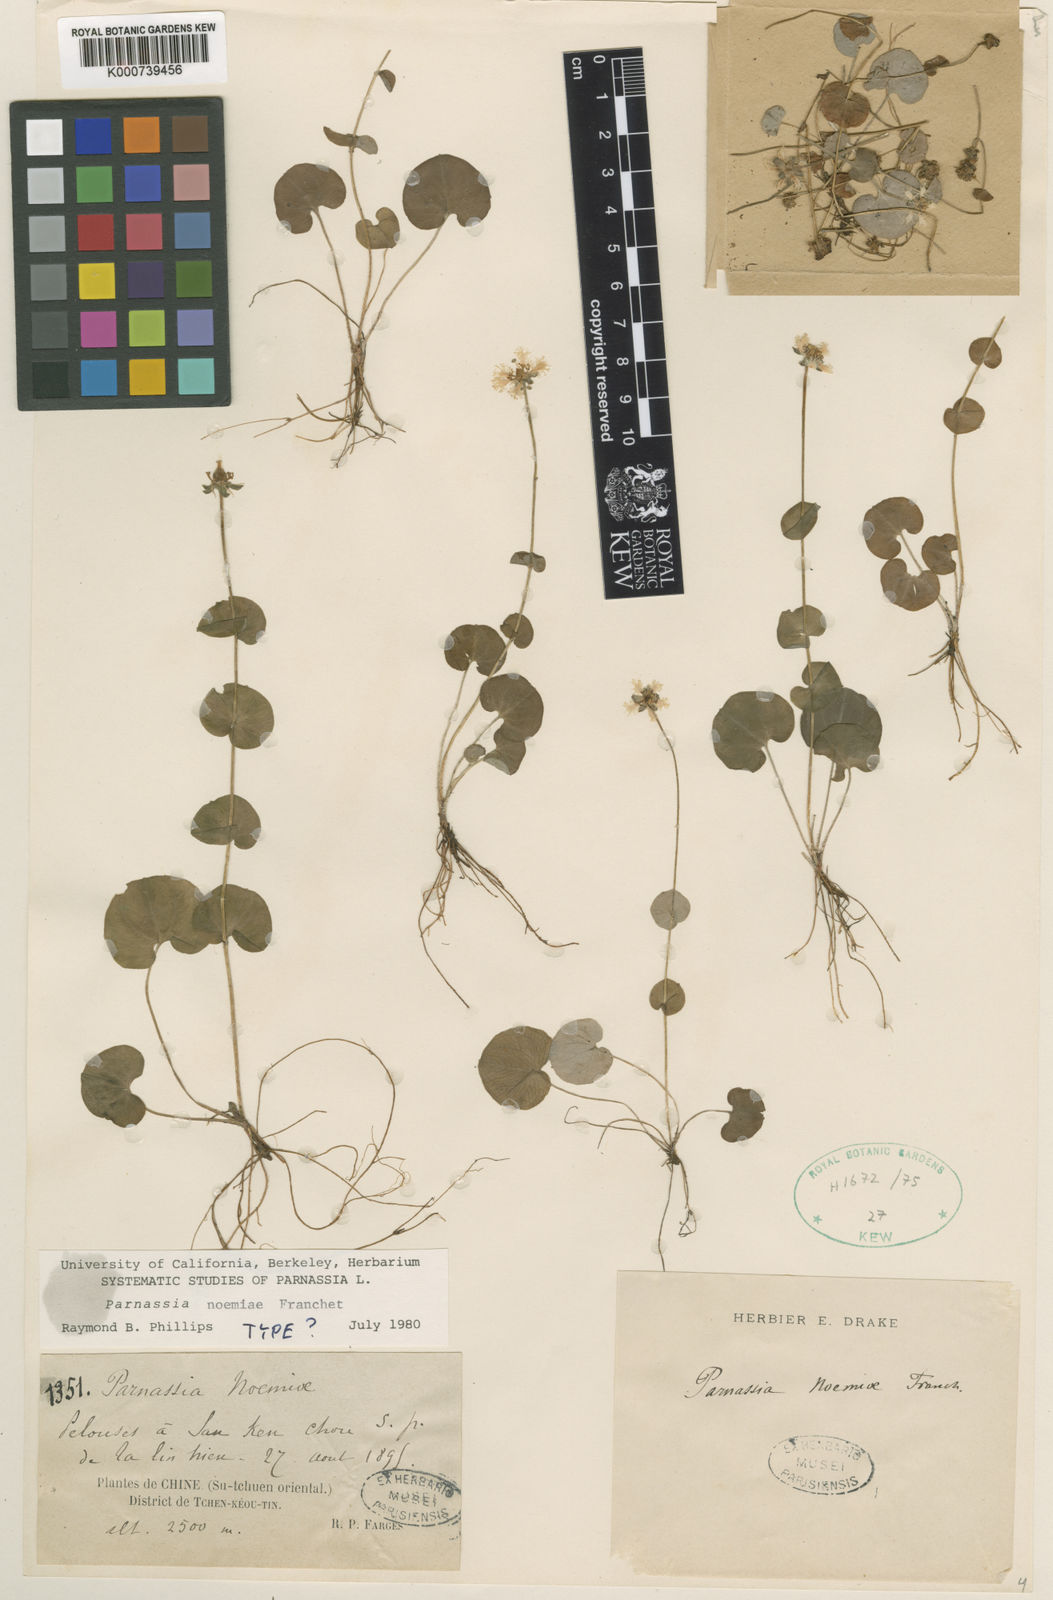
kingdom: Plantae
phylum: Tracheophyta
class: Magnoliopsida
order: Celastrales
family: Parnassiaceae
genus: Parnassia
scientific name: Parnassia
